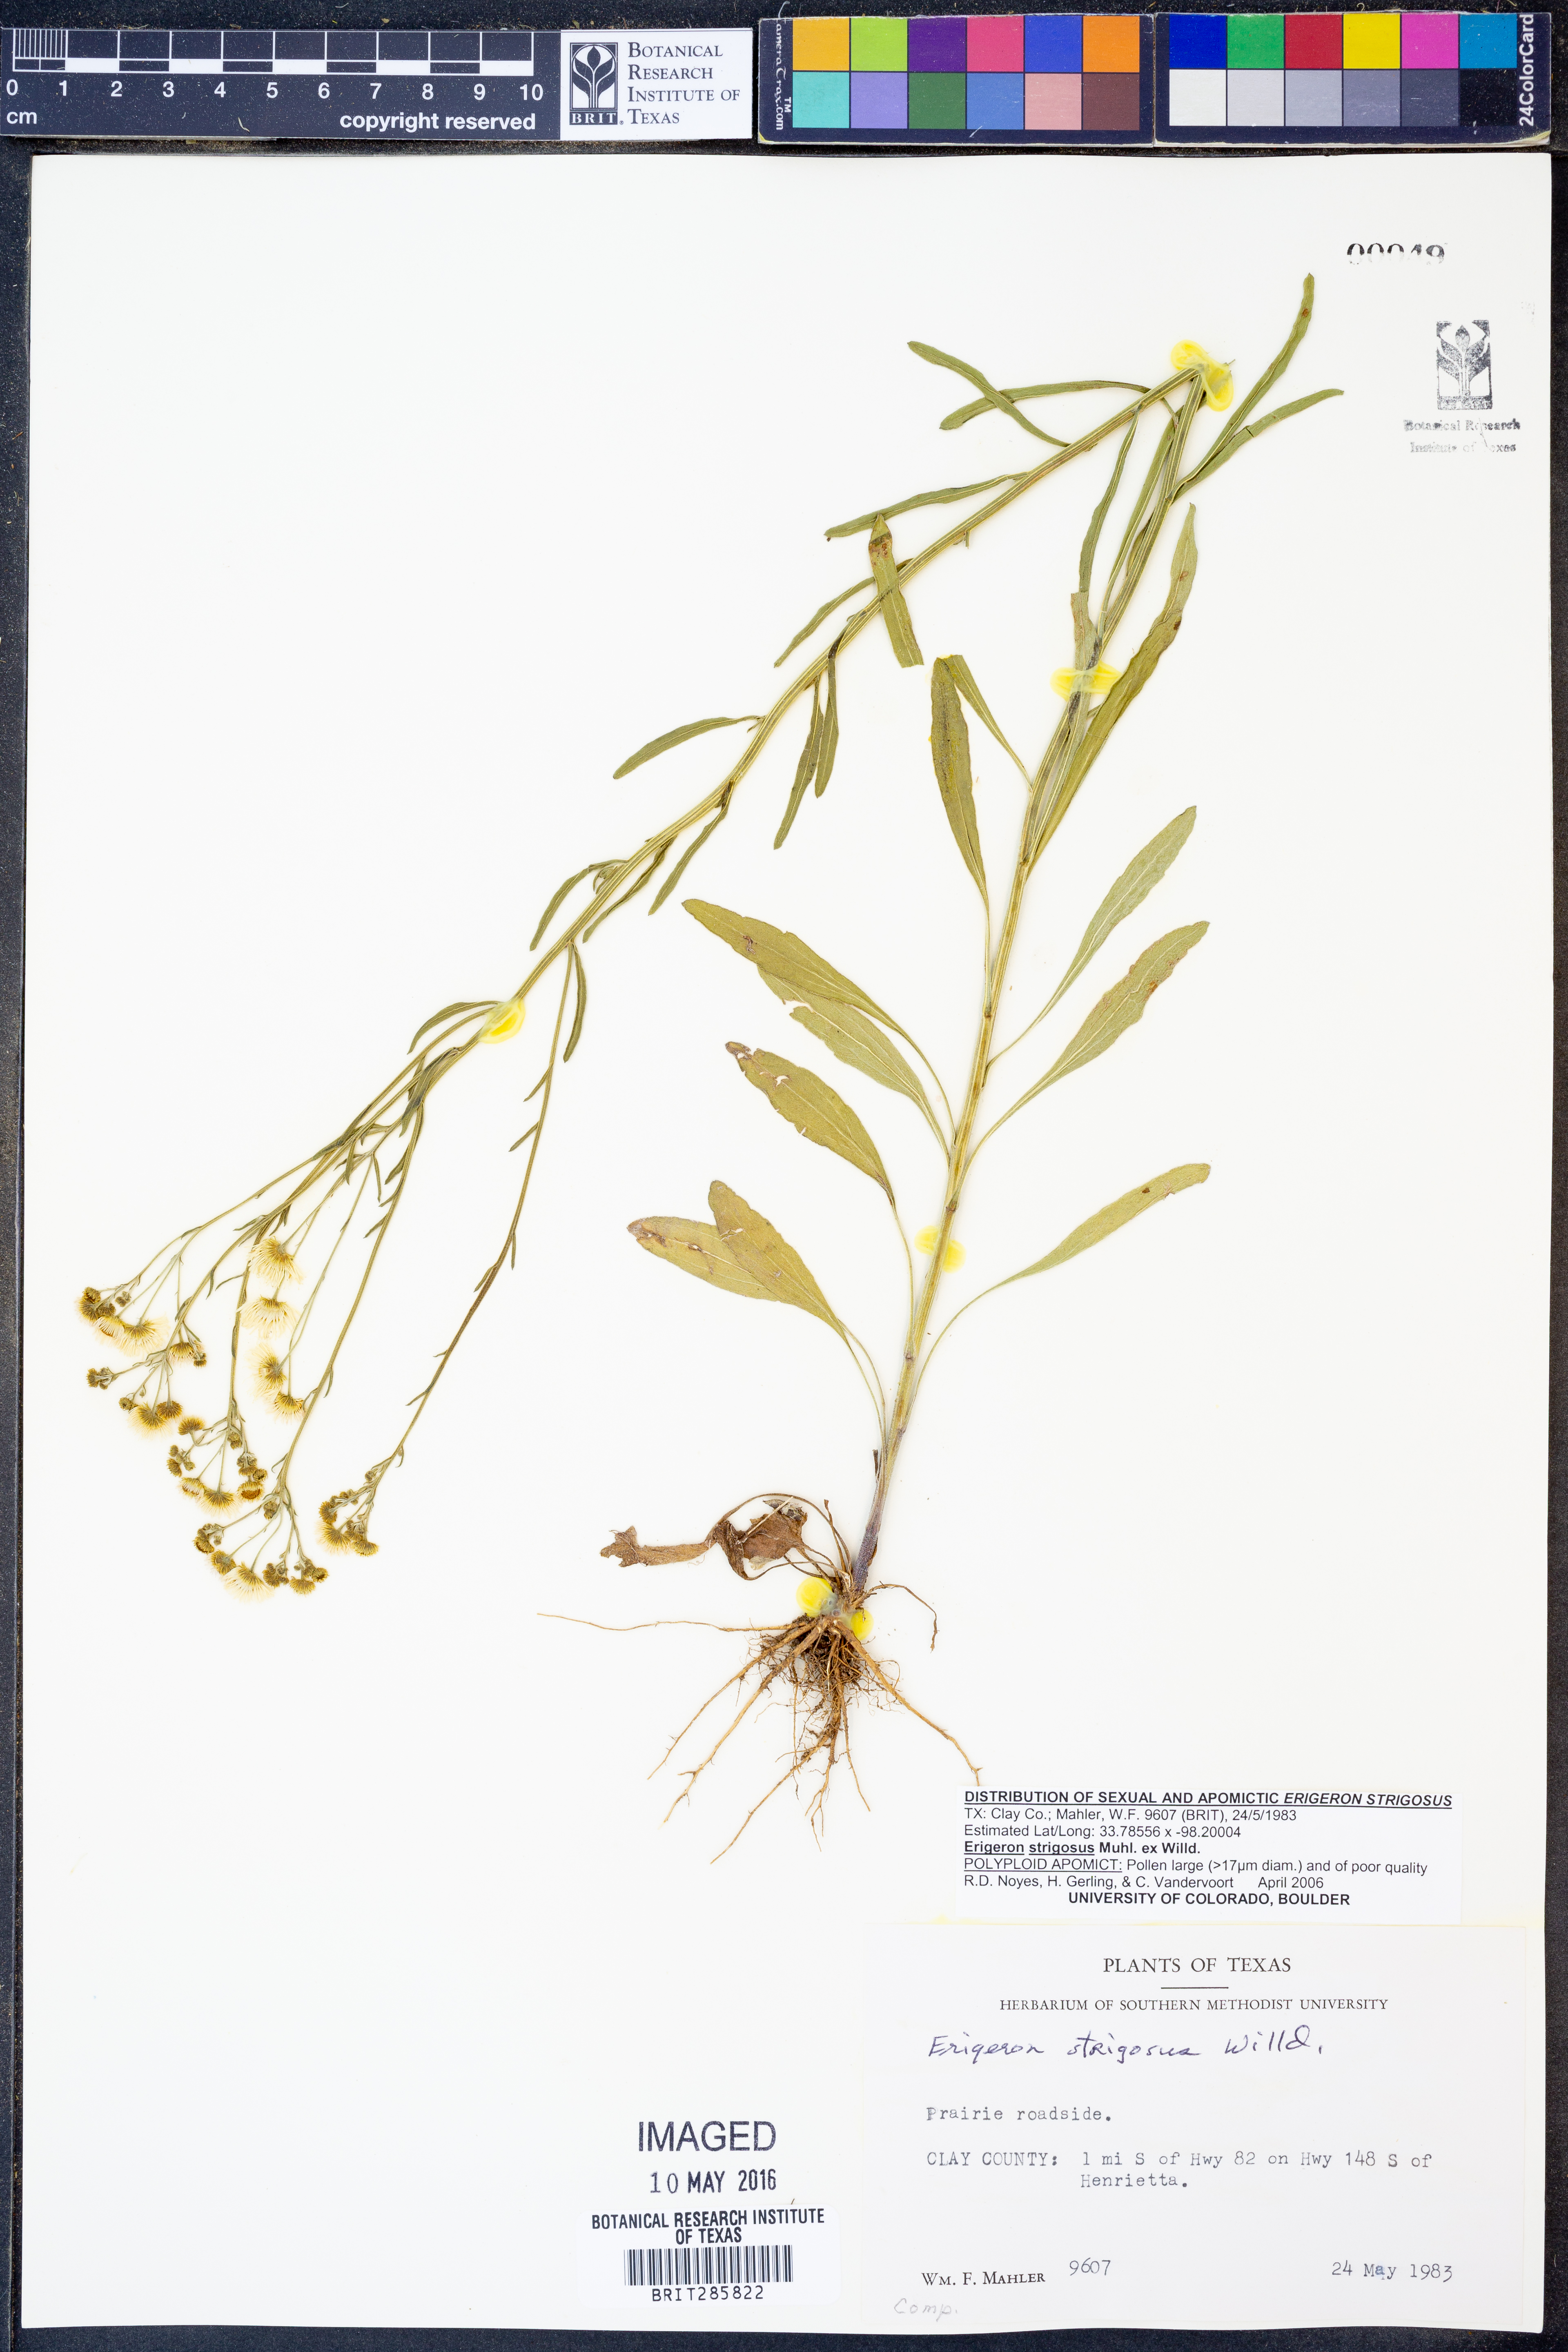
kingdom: Plantae
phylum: Tracheophyta
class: Magnoliopsida
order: Asterales
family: Asteraceae
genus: Erigeron
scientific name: Erigeron strigosus
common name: Common eastern fleabane
